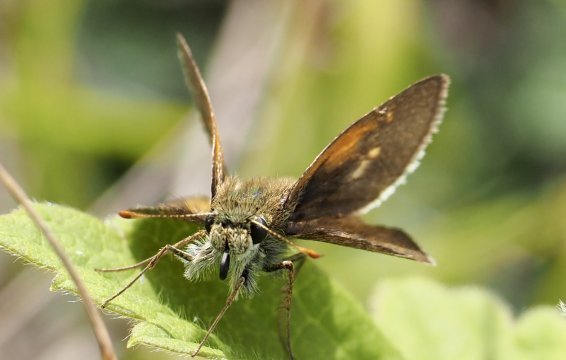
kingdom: Animalia
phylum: Arthropoda
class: Insecta
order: Lepidoptera
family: Hesperiidae
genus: Polites
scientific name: Polites themistocles
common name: Tawny-edged Skipper
